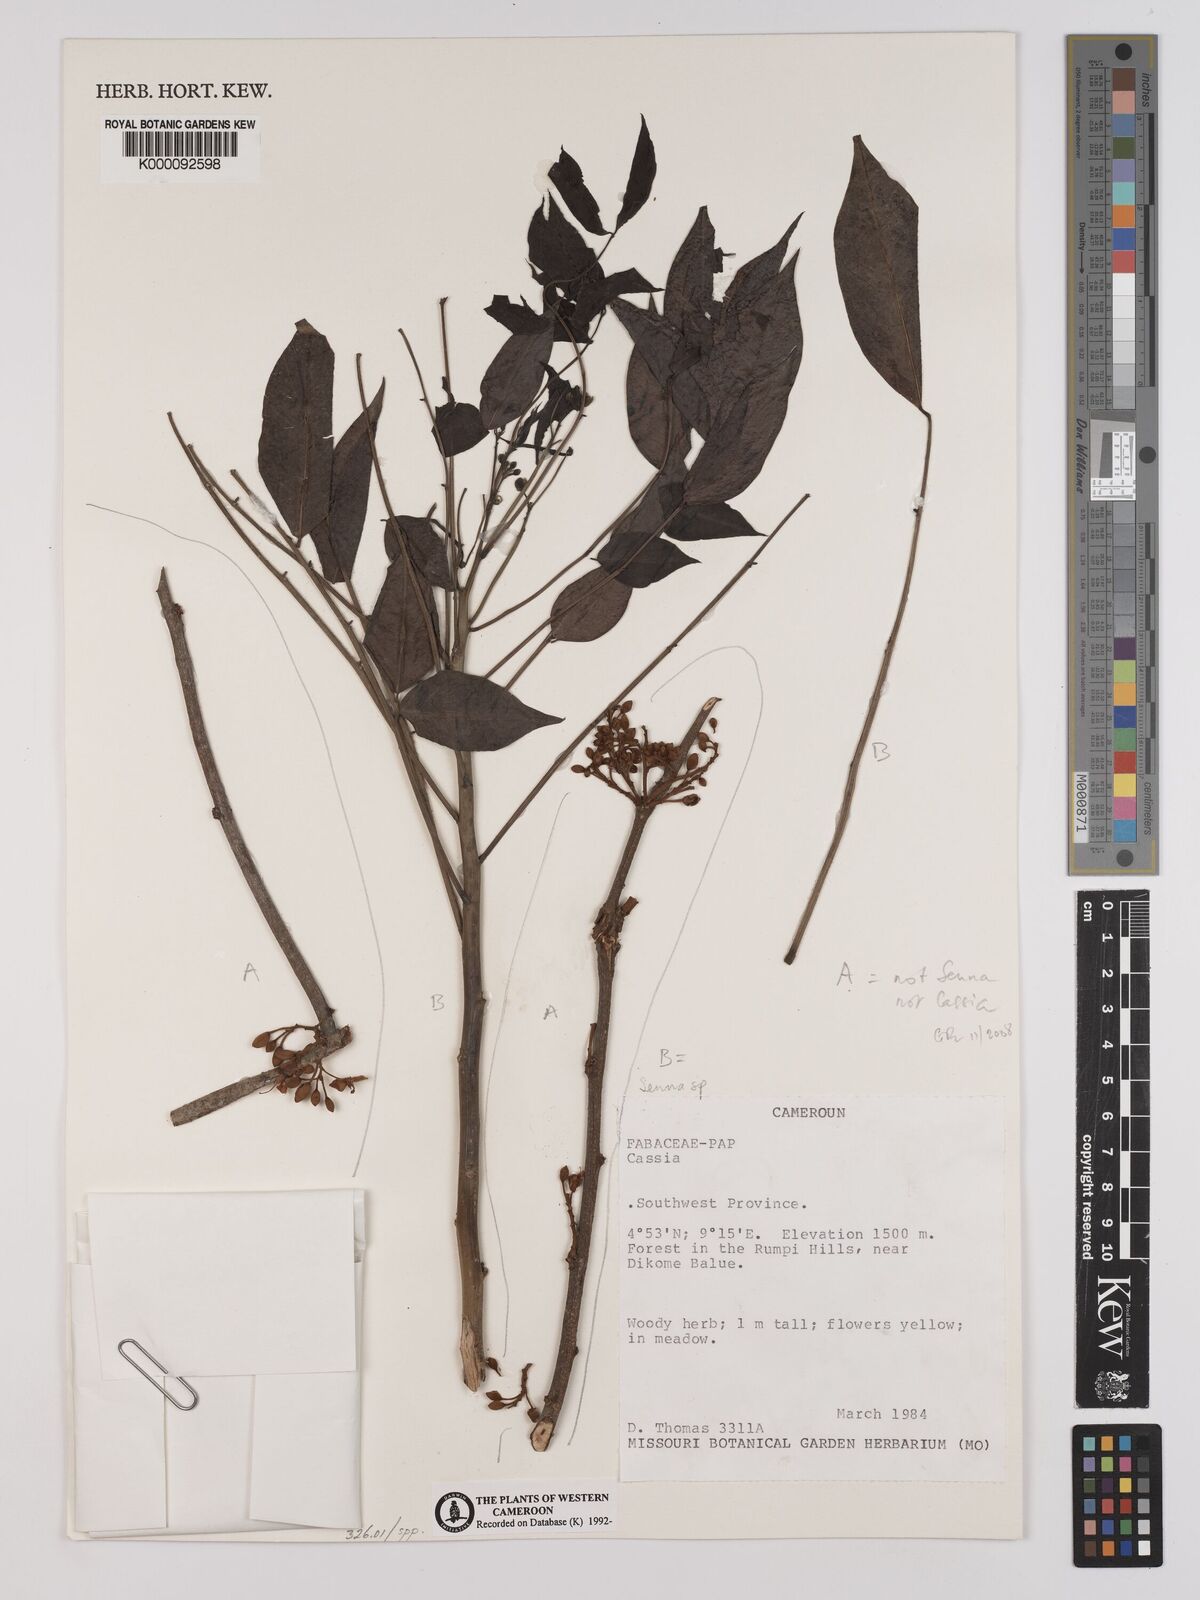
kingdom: Plantae
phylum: Tracheophyta
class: Magnoliopsida
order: Fabales
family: Fabaceae
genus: Senna
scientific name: Senna
